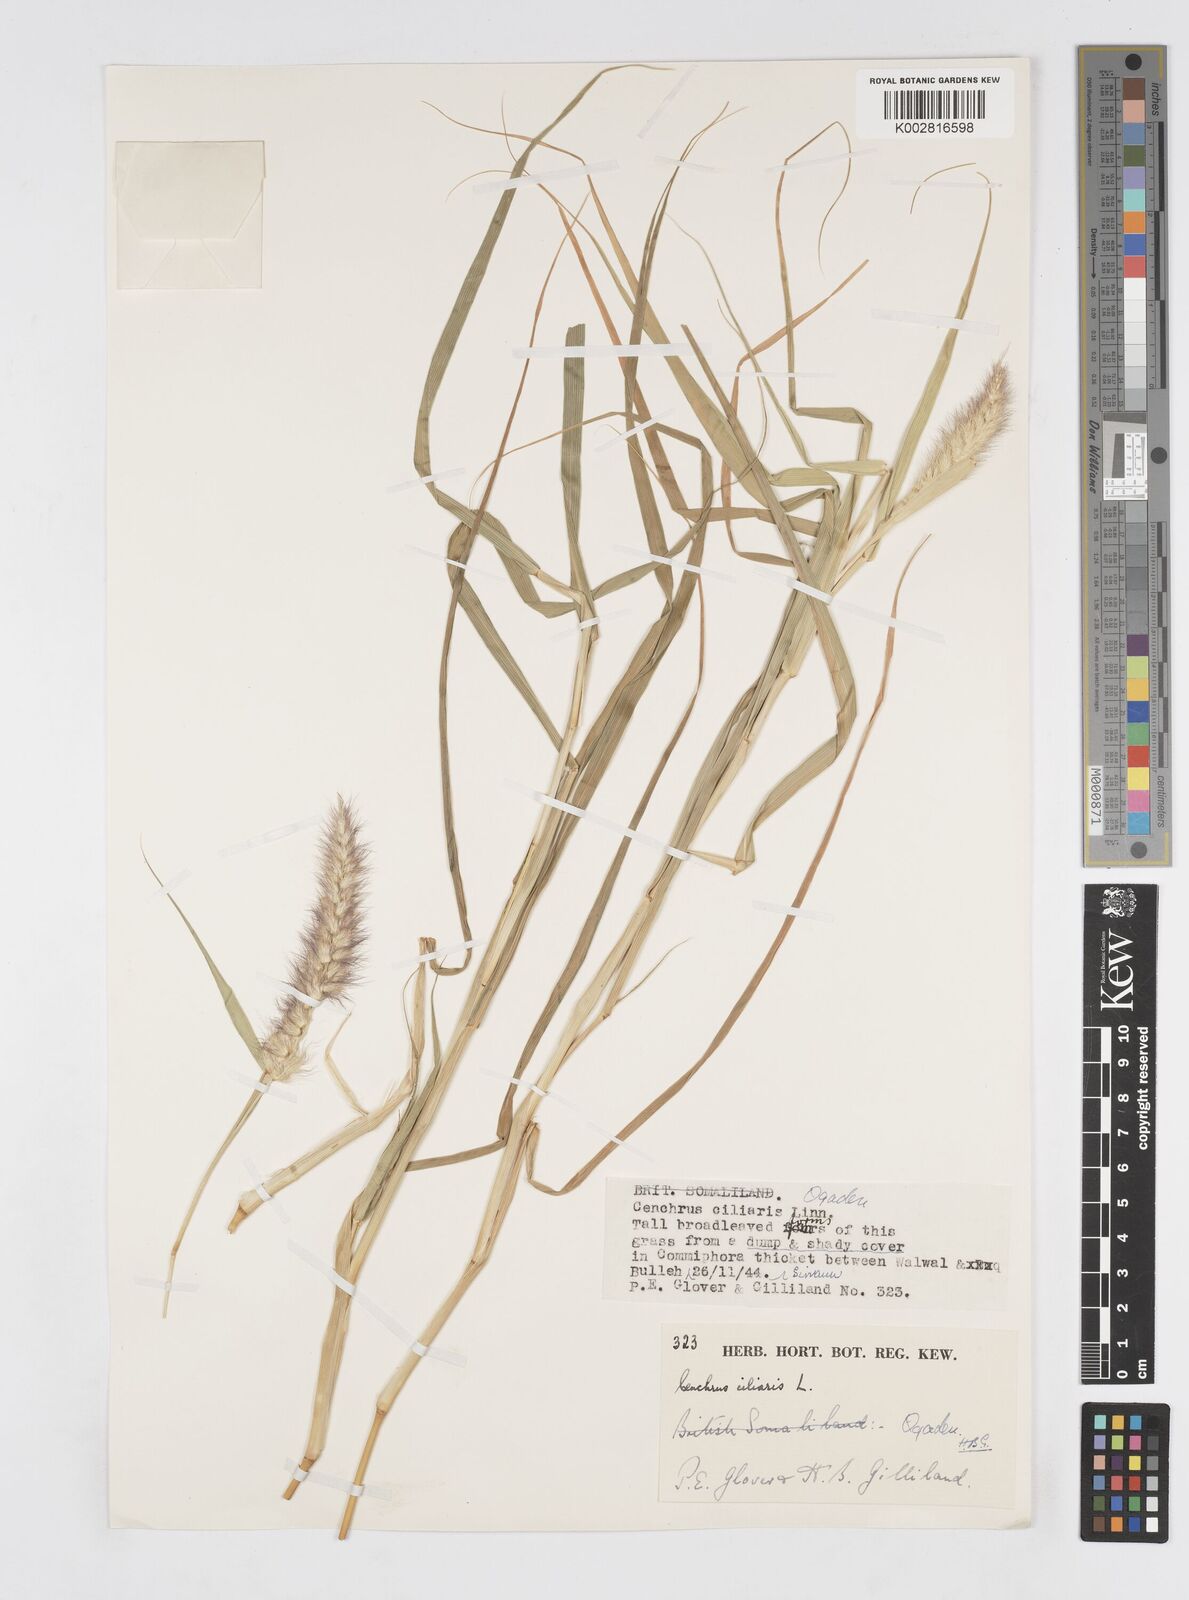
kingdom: Plantae
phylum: Tracheophyta
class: Liliopsida
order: Poales
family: Poaceae
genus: Cenchrus
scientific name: Cenchrus ciliaris
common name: Buffelgrass
